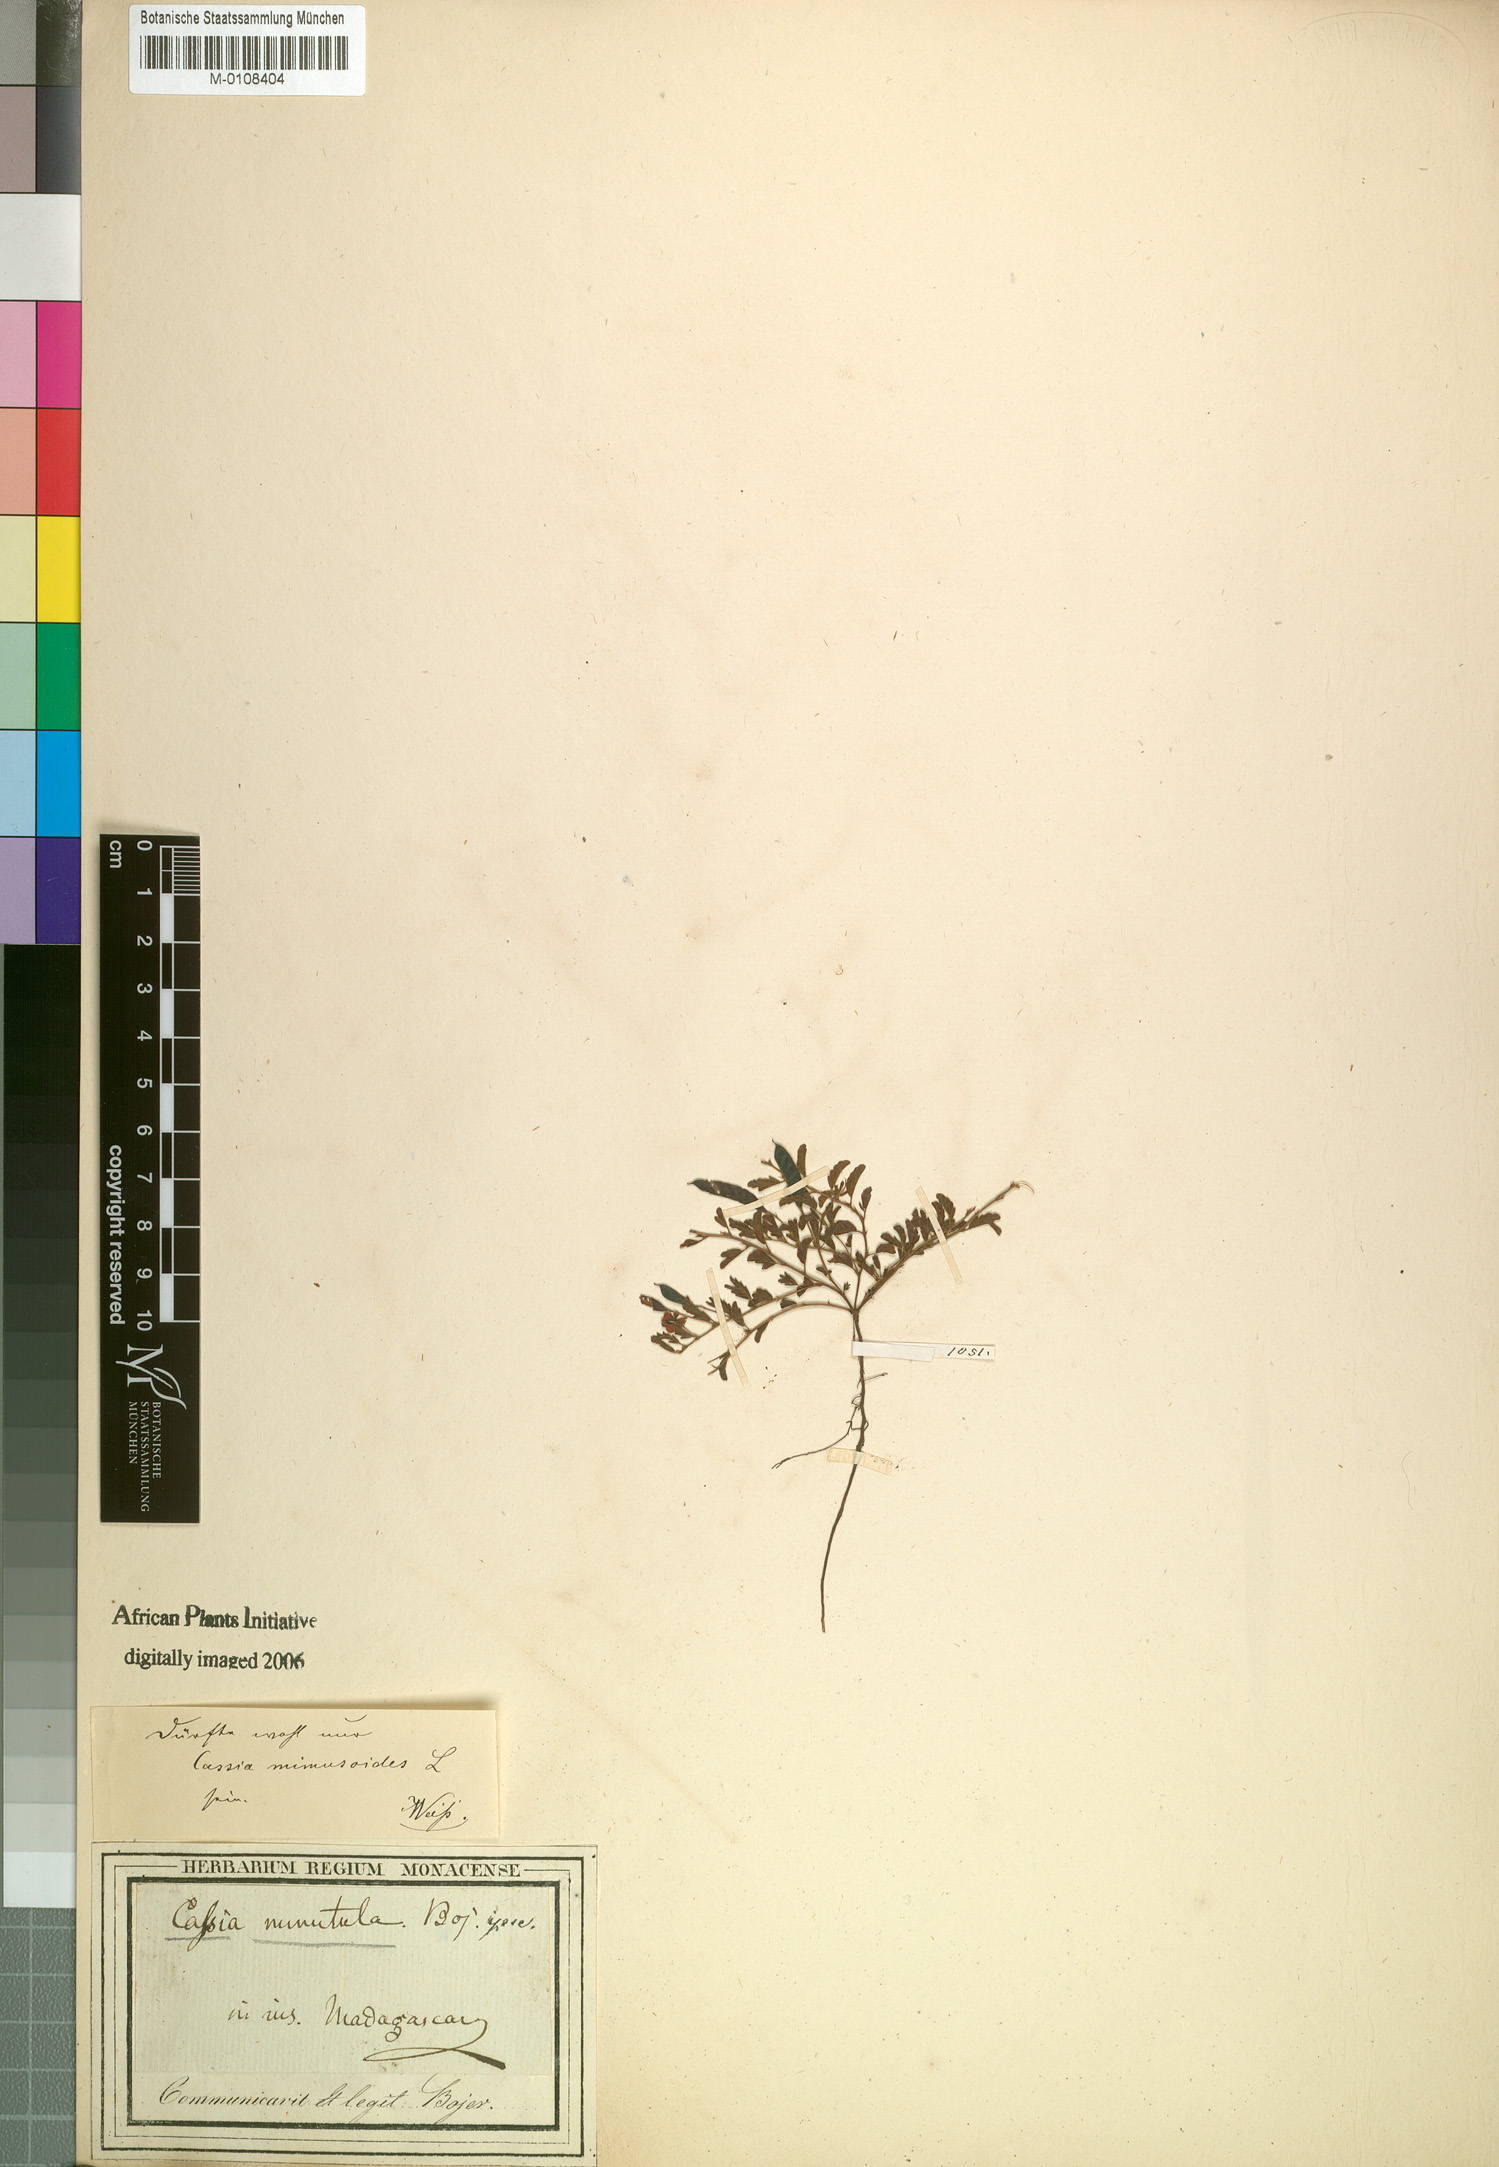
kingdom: Plantae
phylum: Tracheophyta
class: Magnoliopsida
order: Fabales
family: Fabaceae
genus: Chamaecrista
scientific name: Chamaecrista mimosoides
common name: Fish-bone cassia
